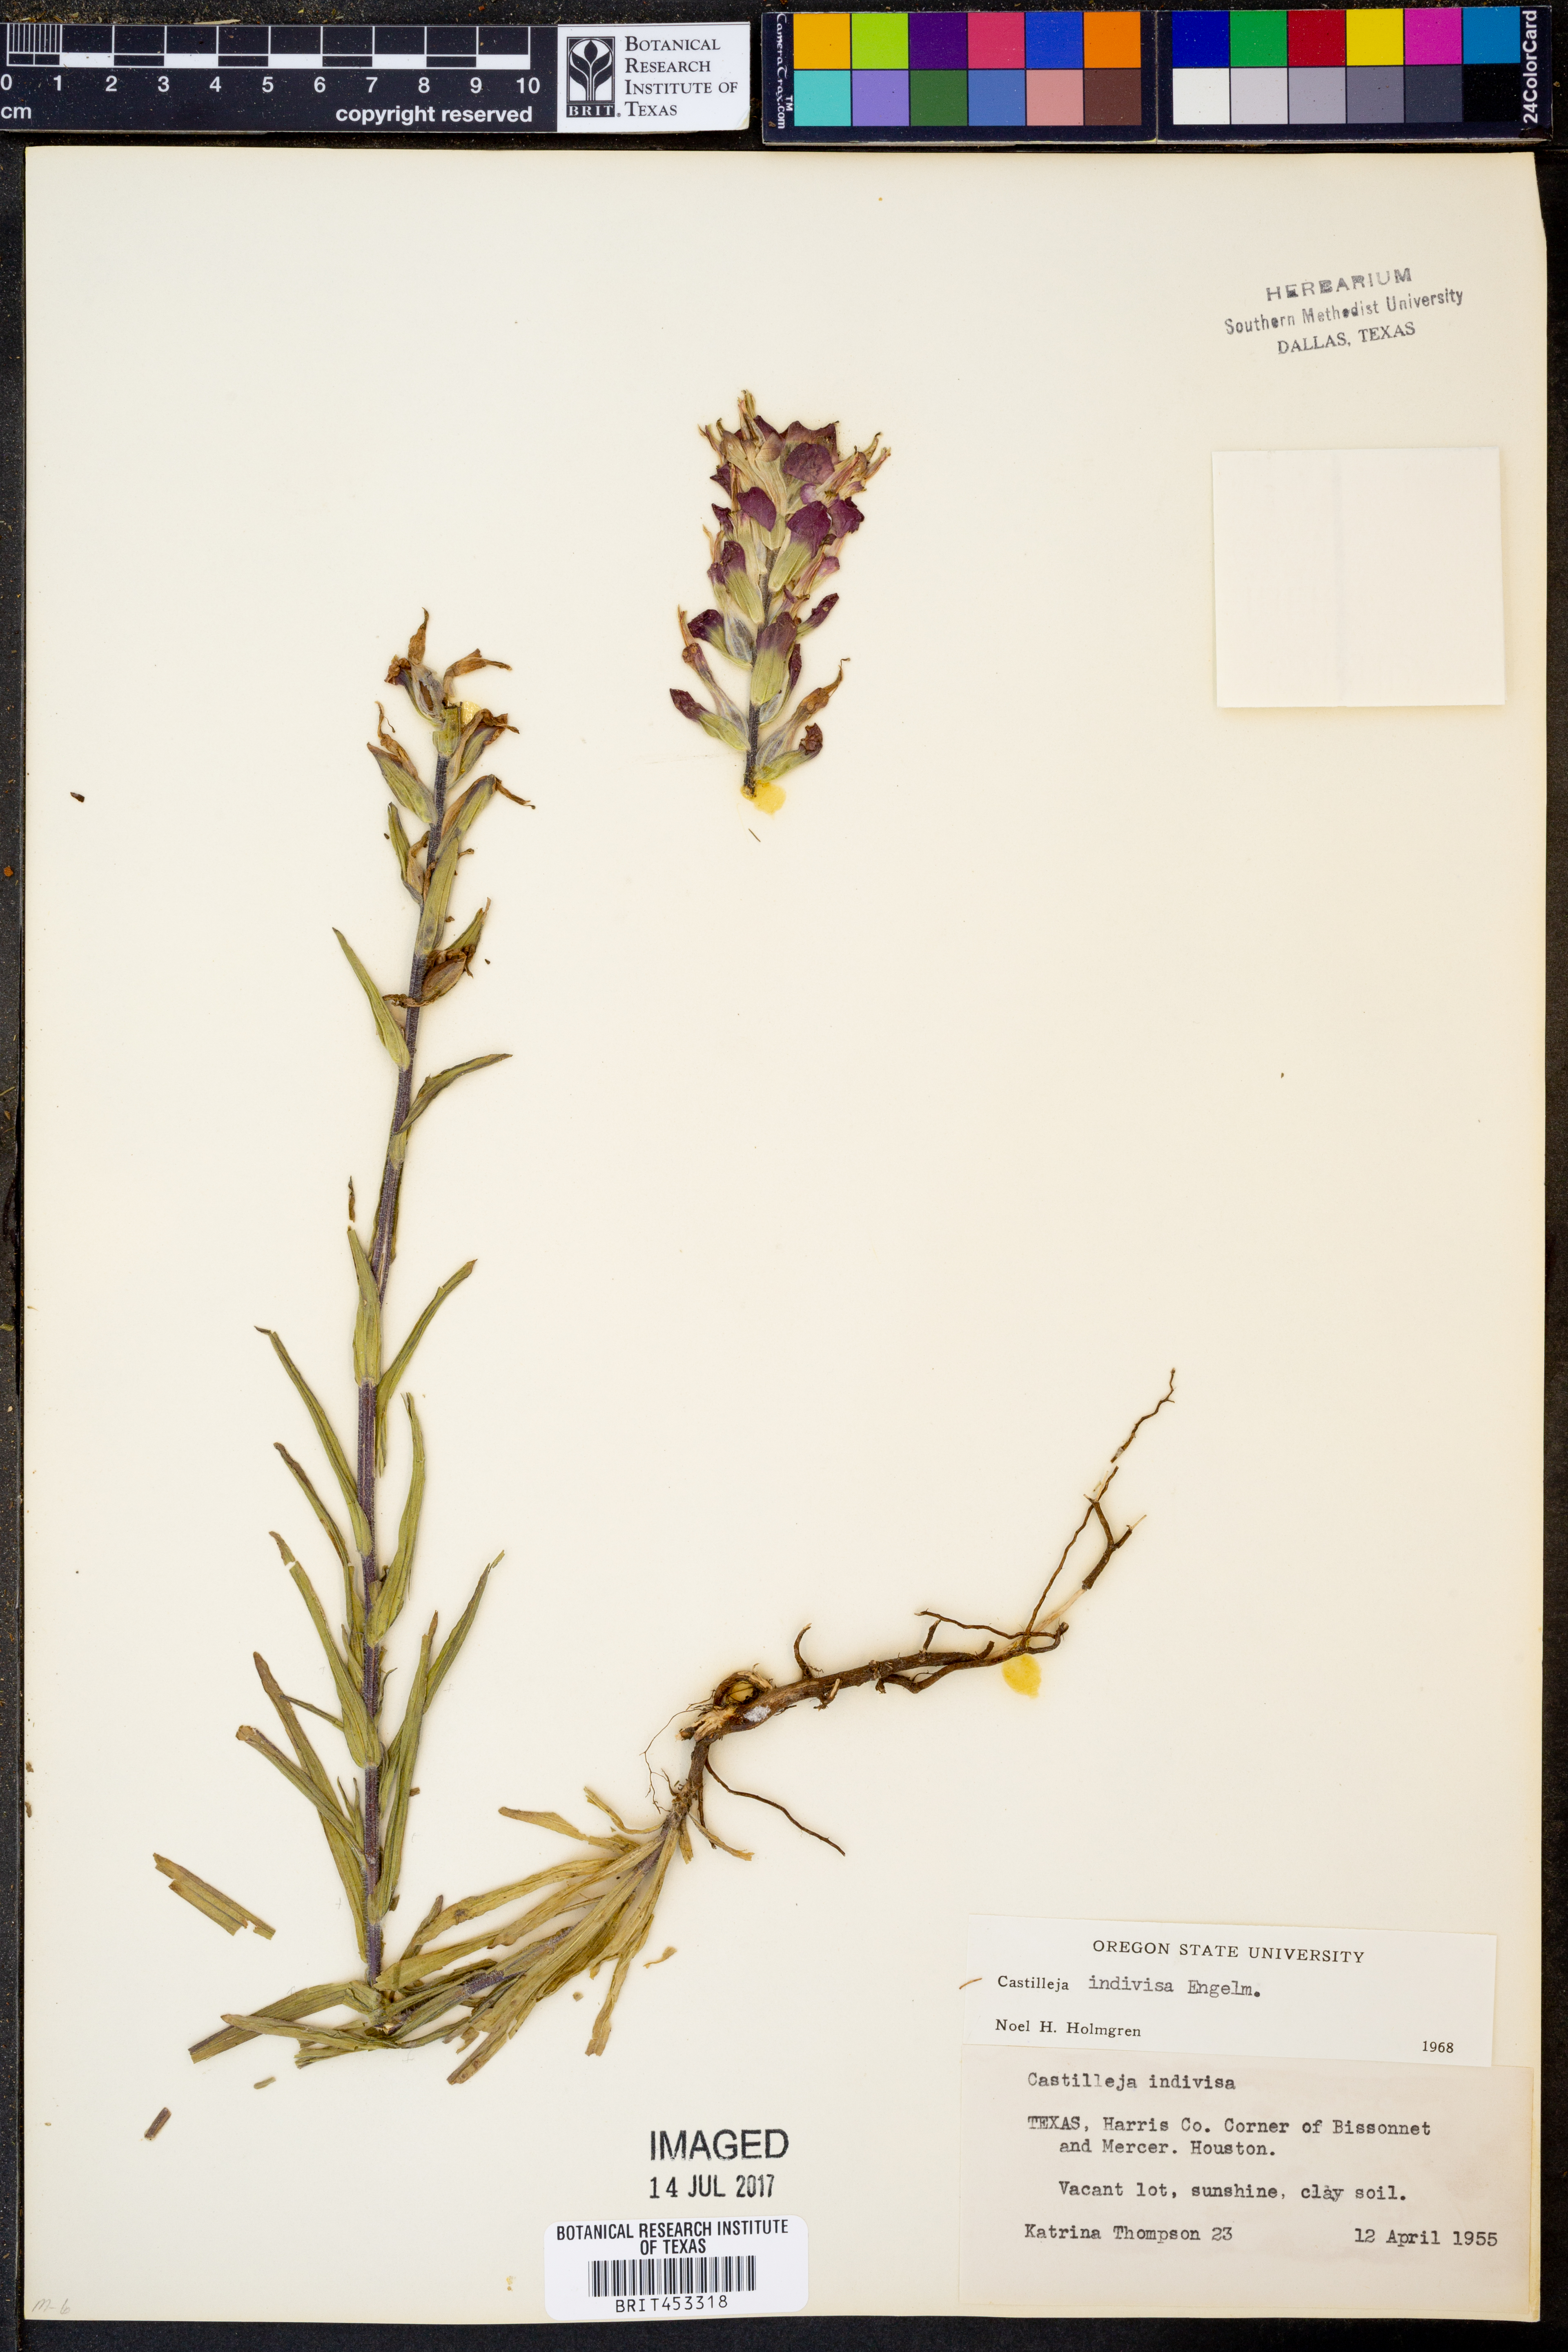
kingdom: Plantae
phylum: Tracheophyta
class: Magnoliopsida
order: Lamiales
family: Orobanchaceae
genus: Castilleja
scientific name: Castilleja indivisa
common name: Texas paintbrush
